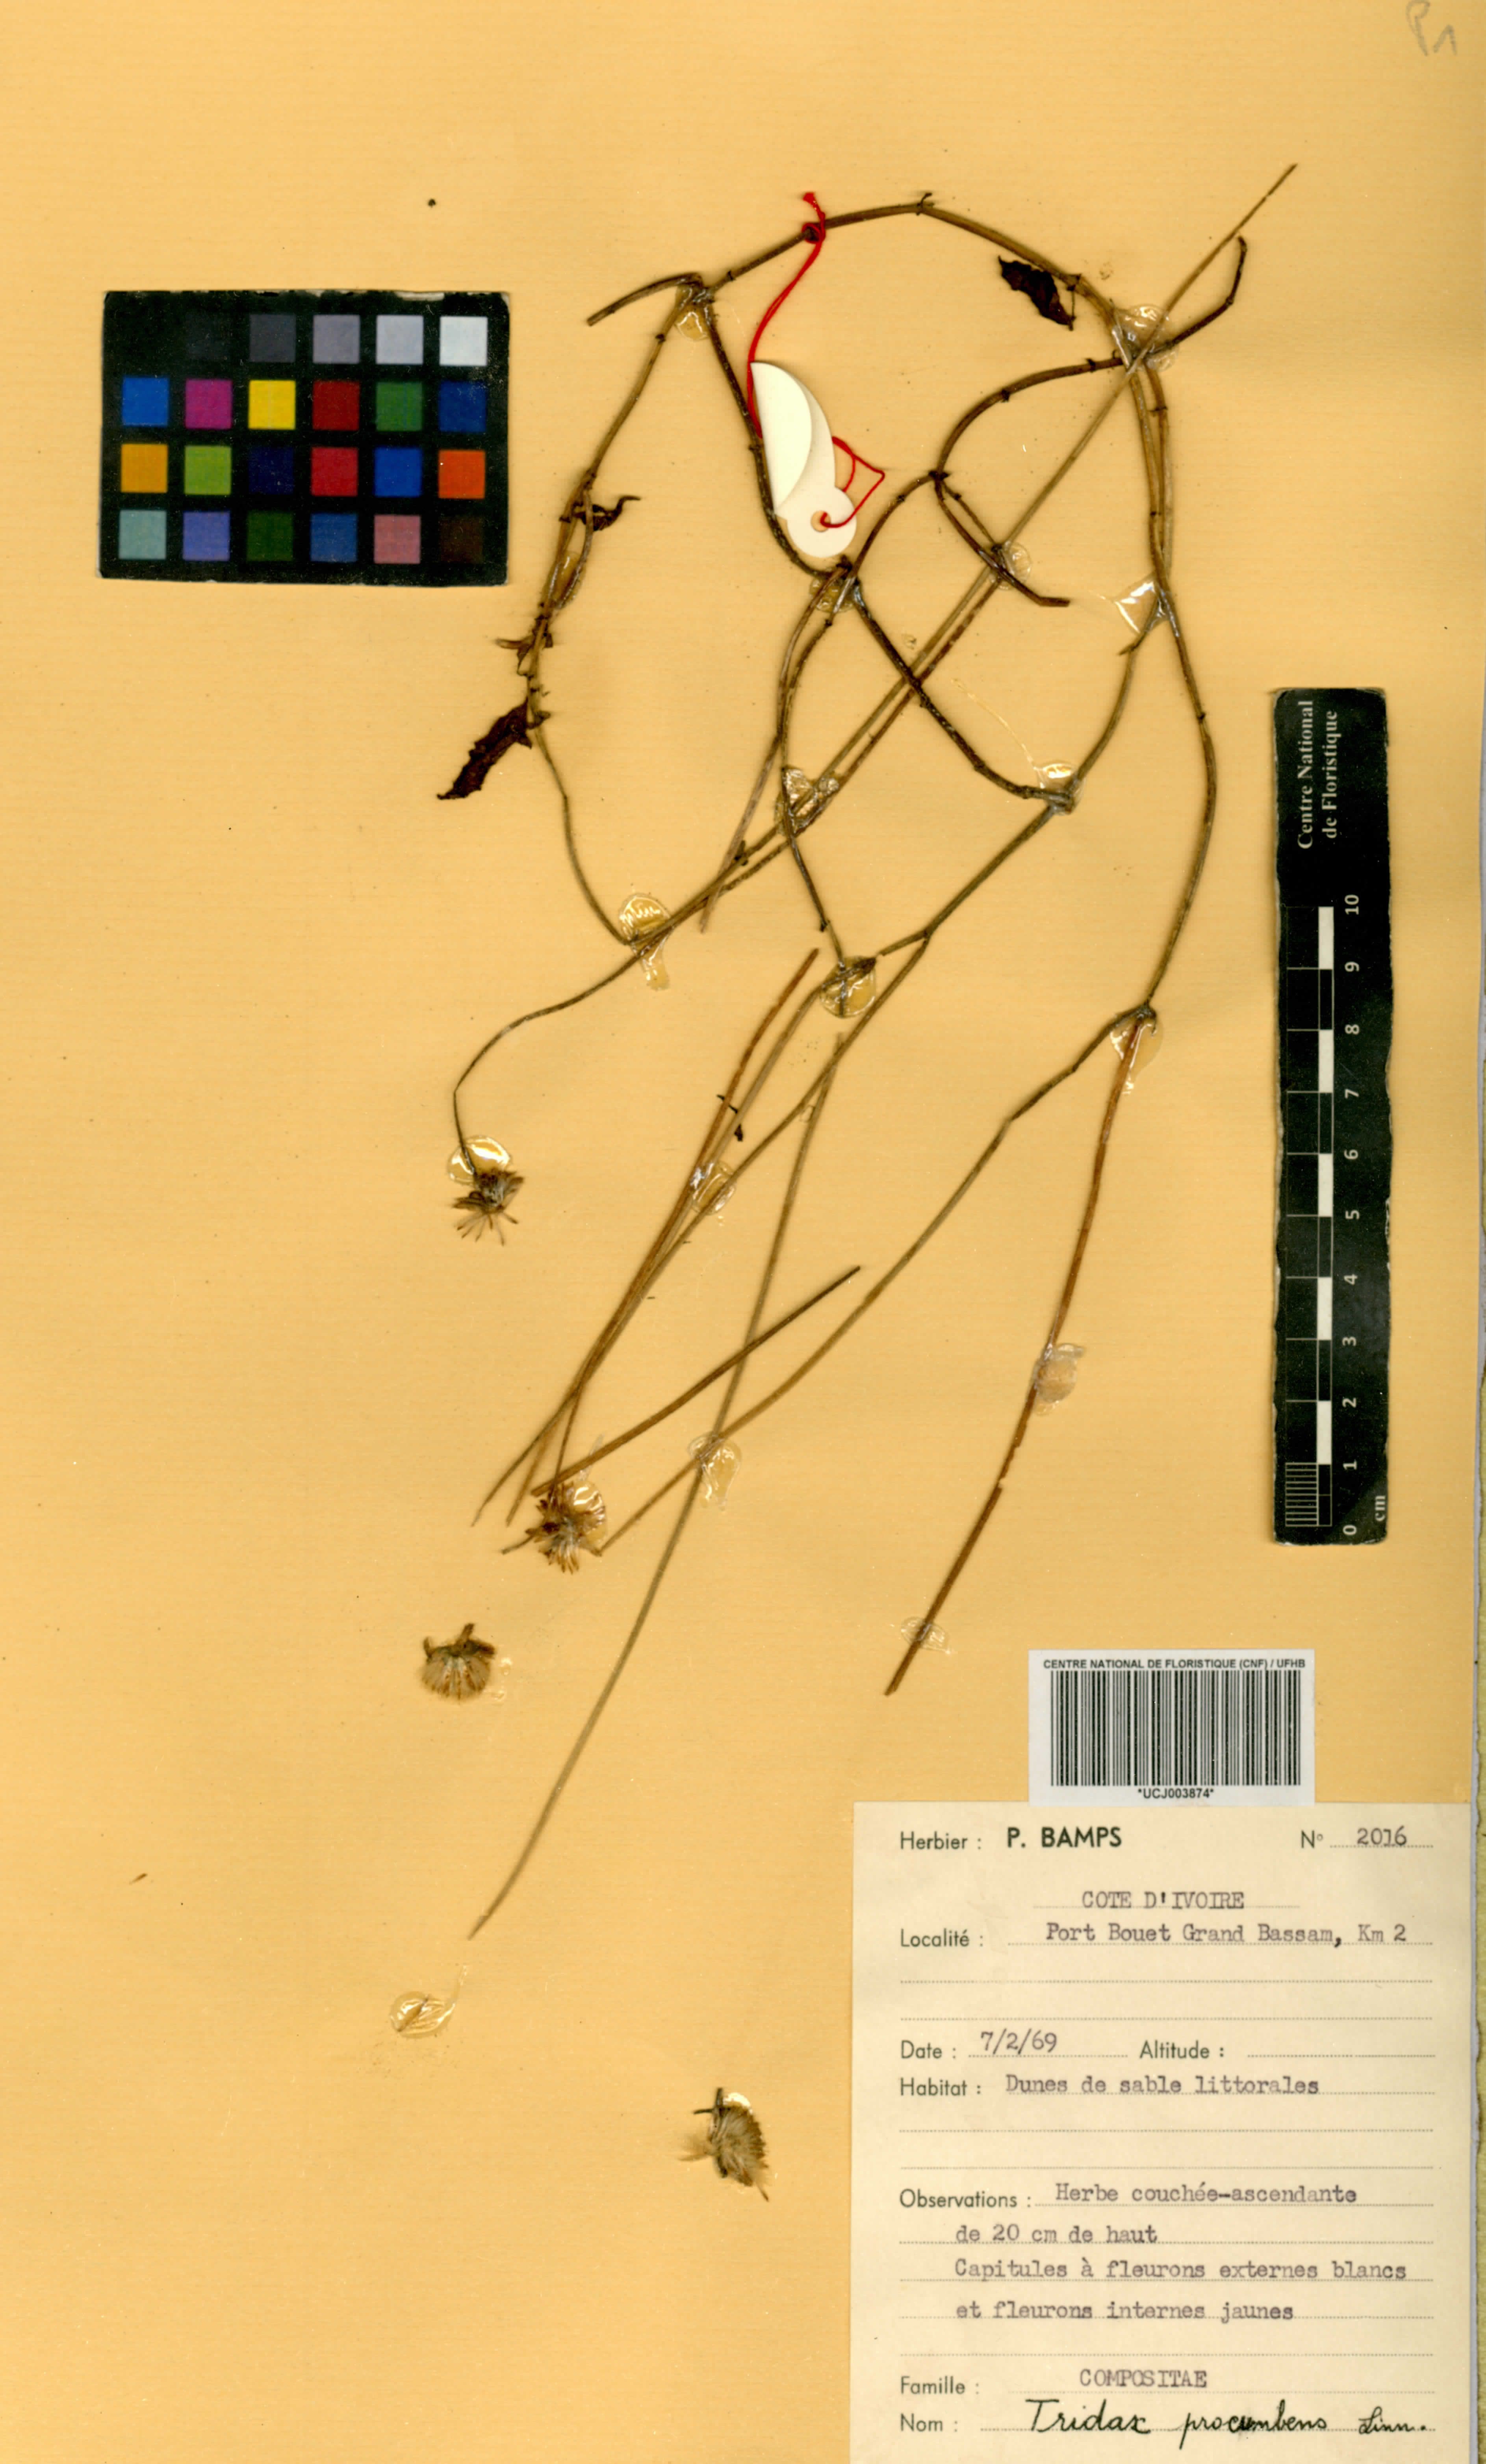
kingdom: Plantae
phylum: Tracheophyta
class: Magnoliopsida
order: Asterales
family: Asteraceae
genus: Tridax
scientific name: Tridax procumbens
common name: Coatbuttons
